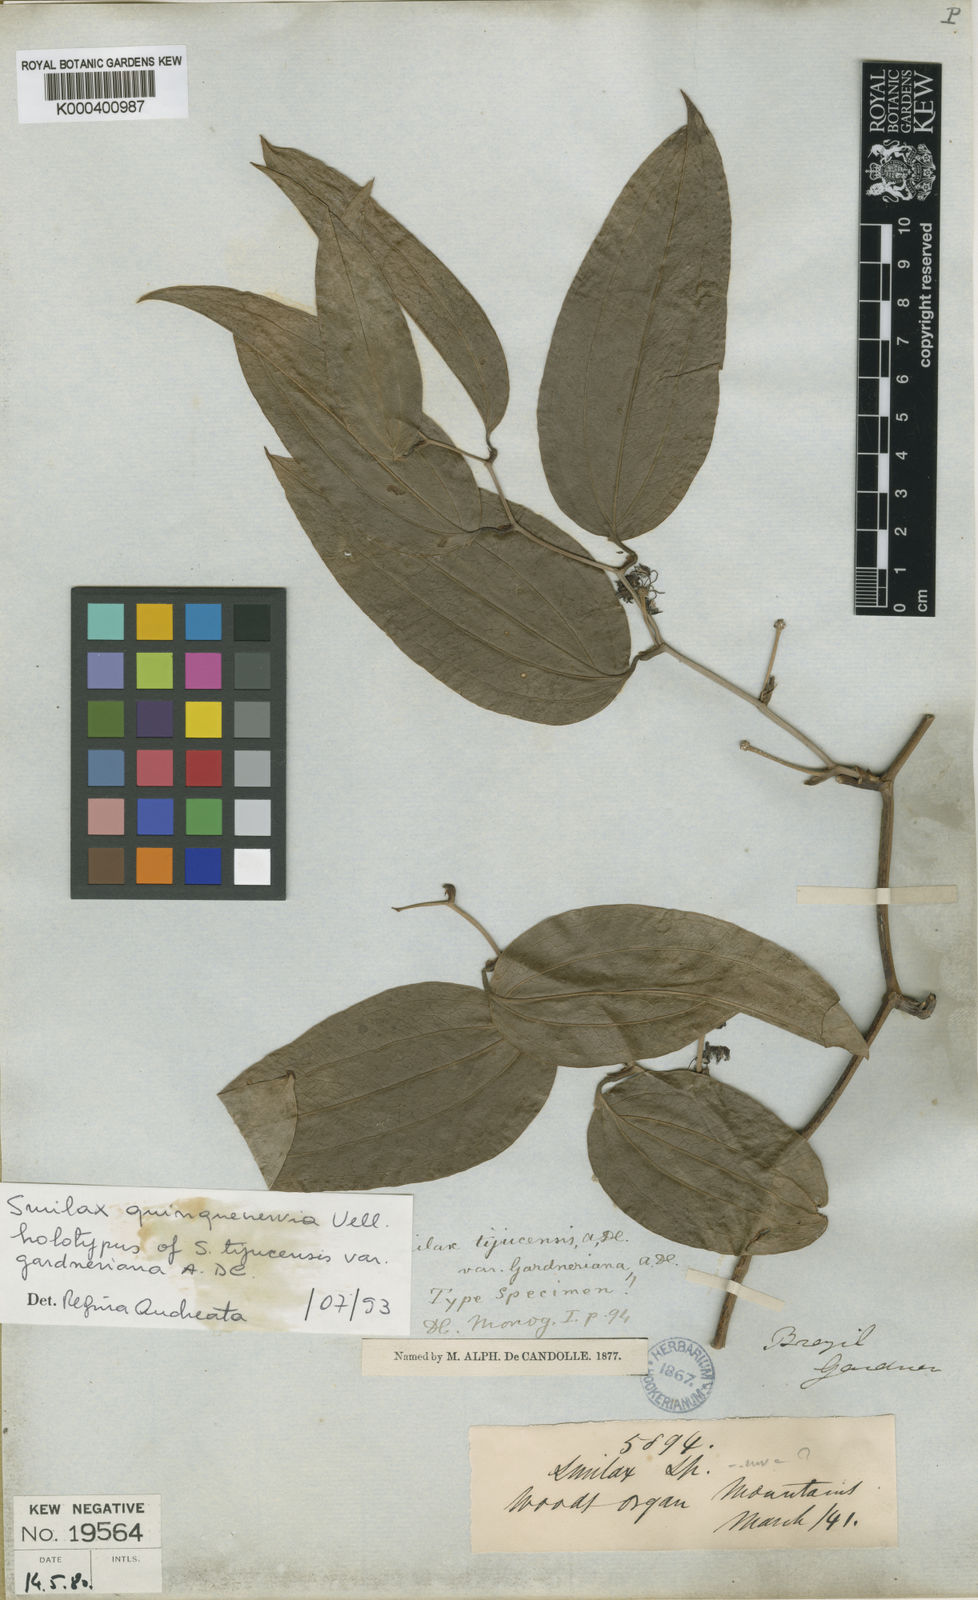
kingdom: Plantae
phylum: Tracheophyta
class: Liliopsida
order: Liliales
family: Smilacaceae
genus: Smilax
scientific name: Smilax quinquenervia
